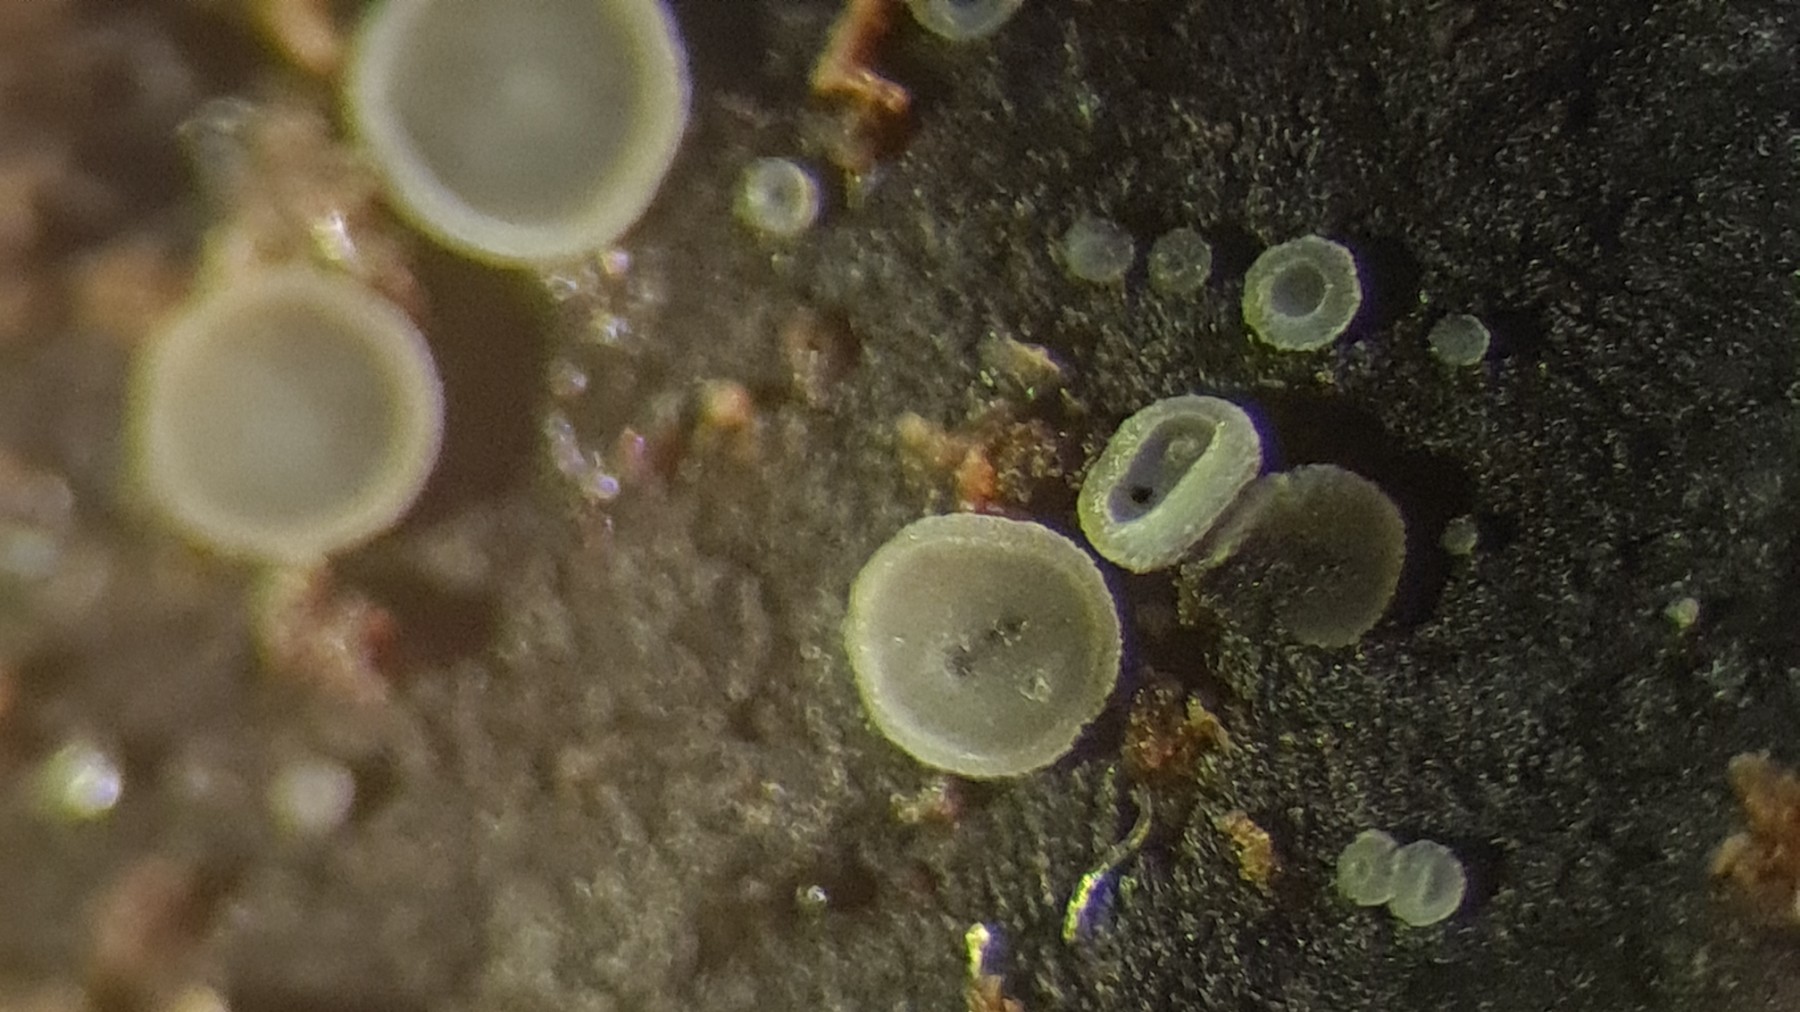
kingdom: Fungi
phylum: Ascomycota
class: Leotiomycetes
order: Helotiales
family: Mollisiaceae
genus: Mollisia
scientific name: Mollisia
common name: gråskive
